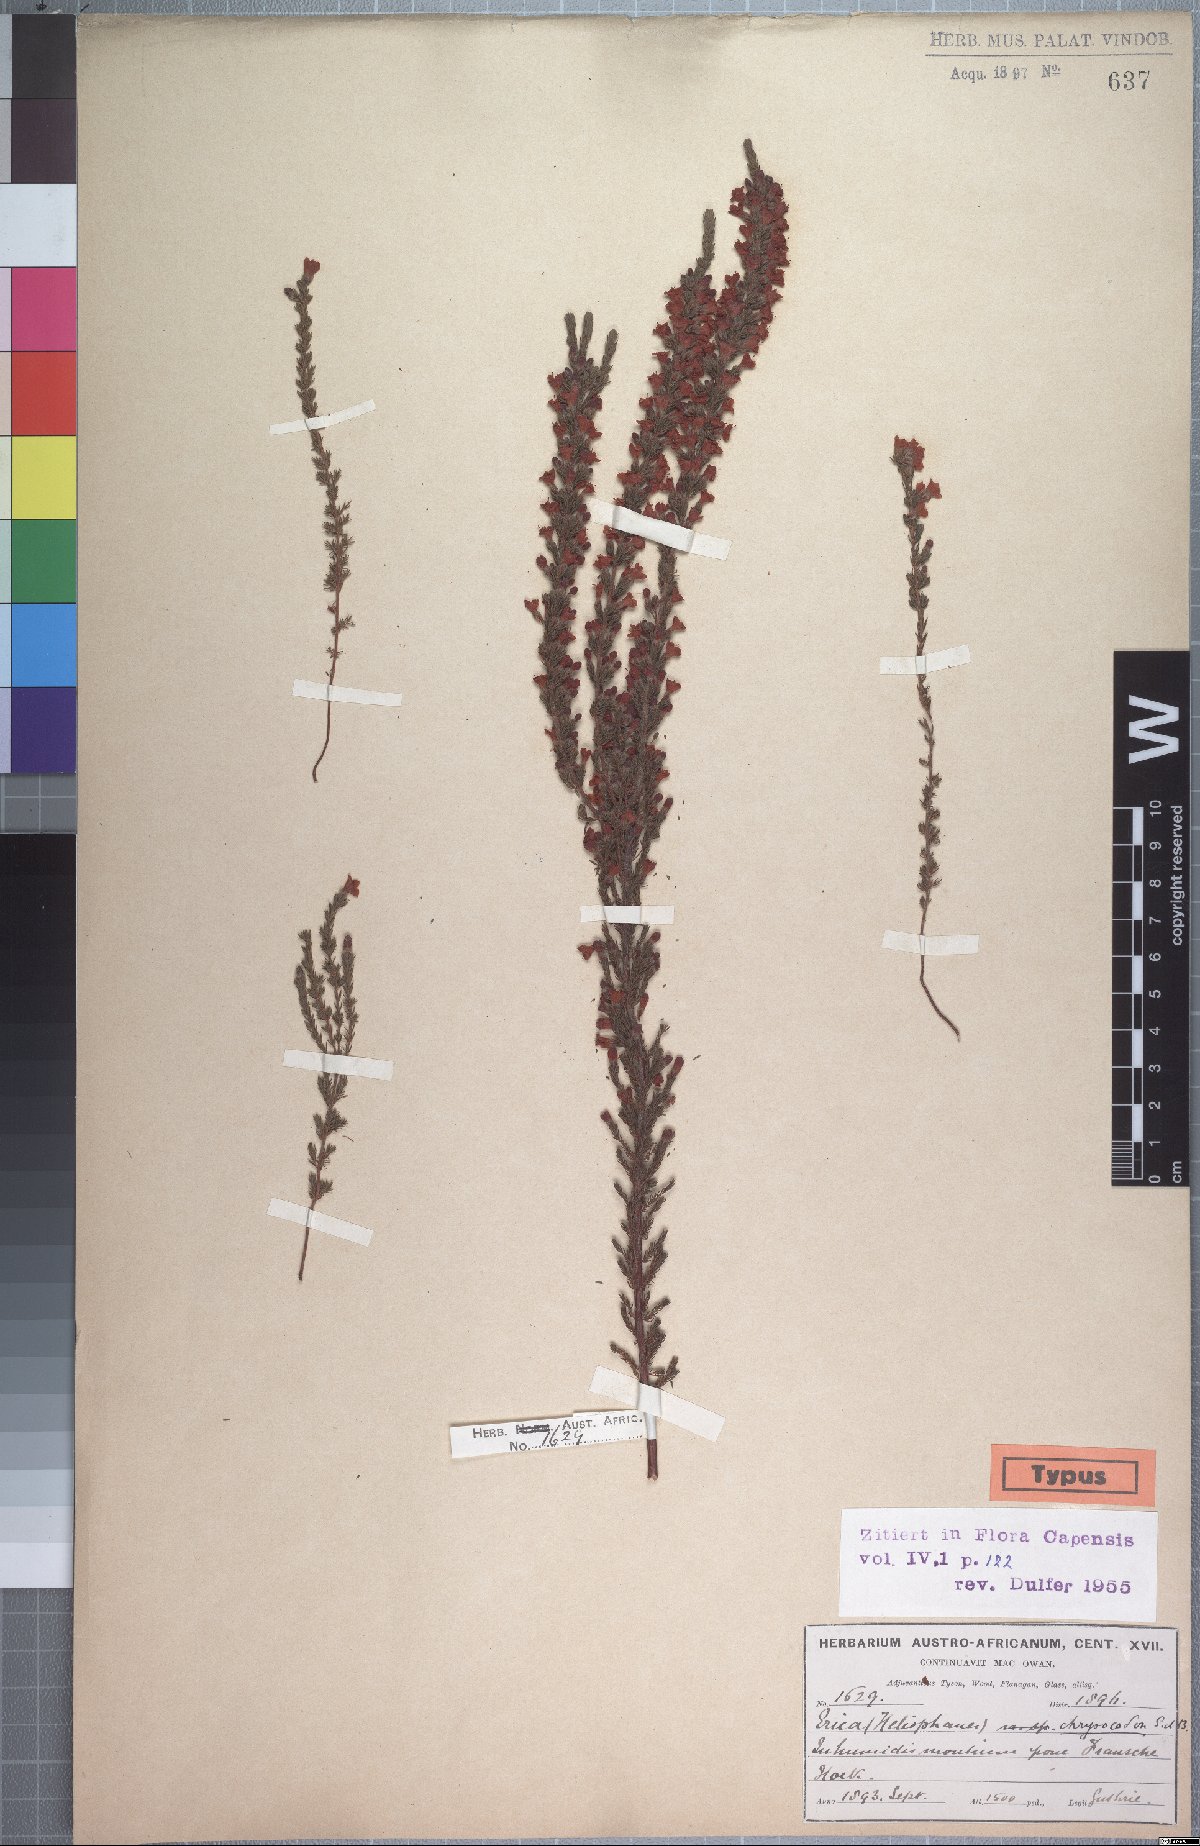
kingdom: Plantae
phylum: Tracheophyta
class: Magnoliopsida
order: Ericales
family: Ericaceae
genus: Erica
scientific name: Erica chrysocodon
